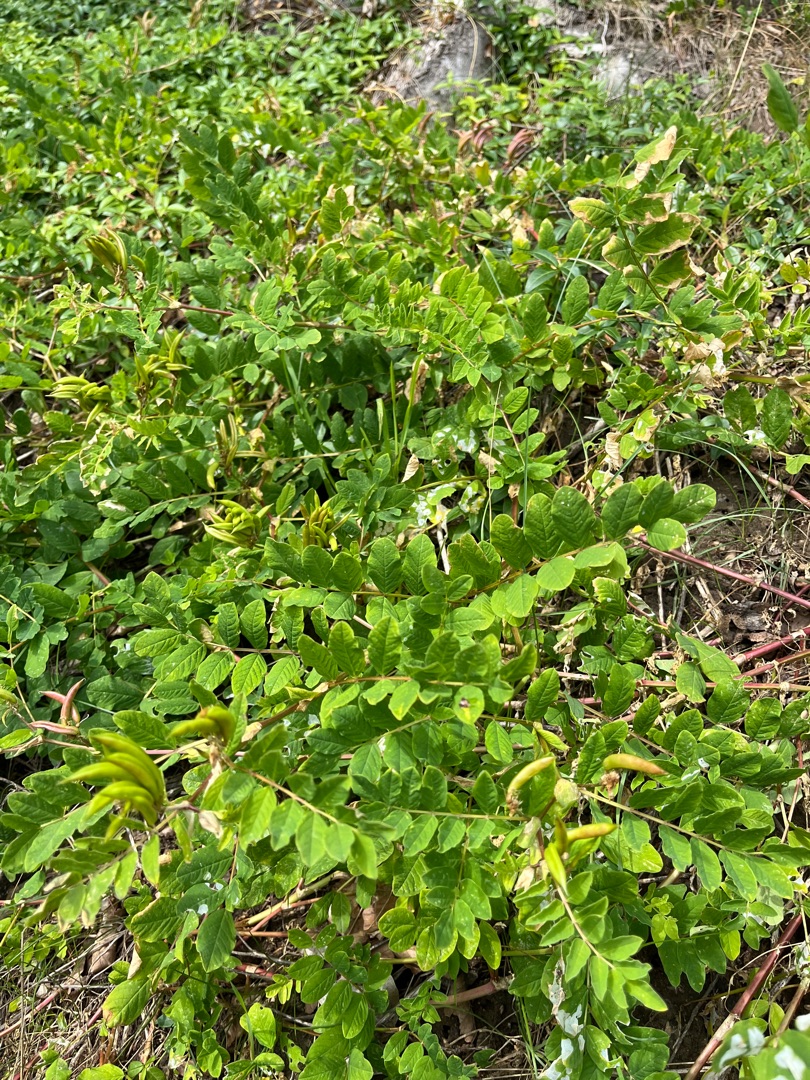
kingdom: Plantae
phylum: Tracheophyta
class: Magnoliopsida
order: Fabales
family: Fabaceae
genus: Astragalus
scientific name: Astragalus glycyphyllos
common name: Sød astragel
